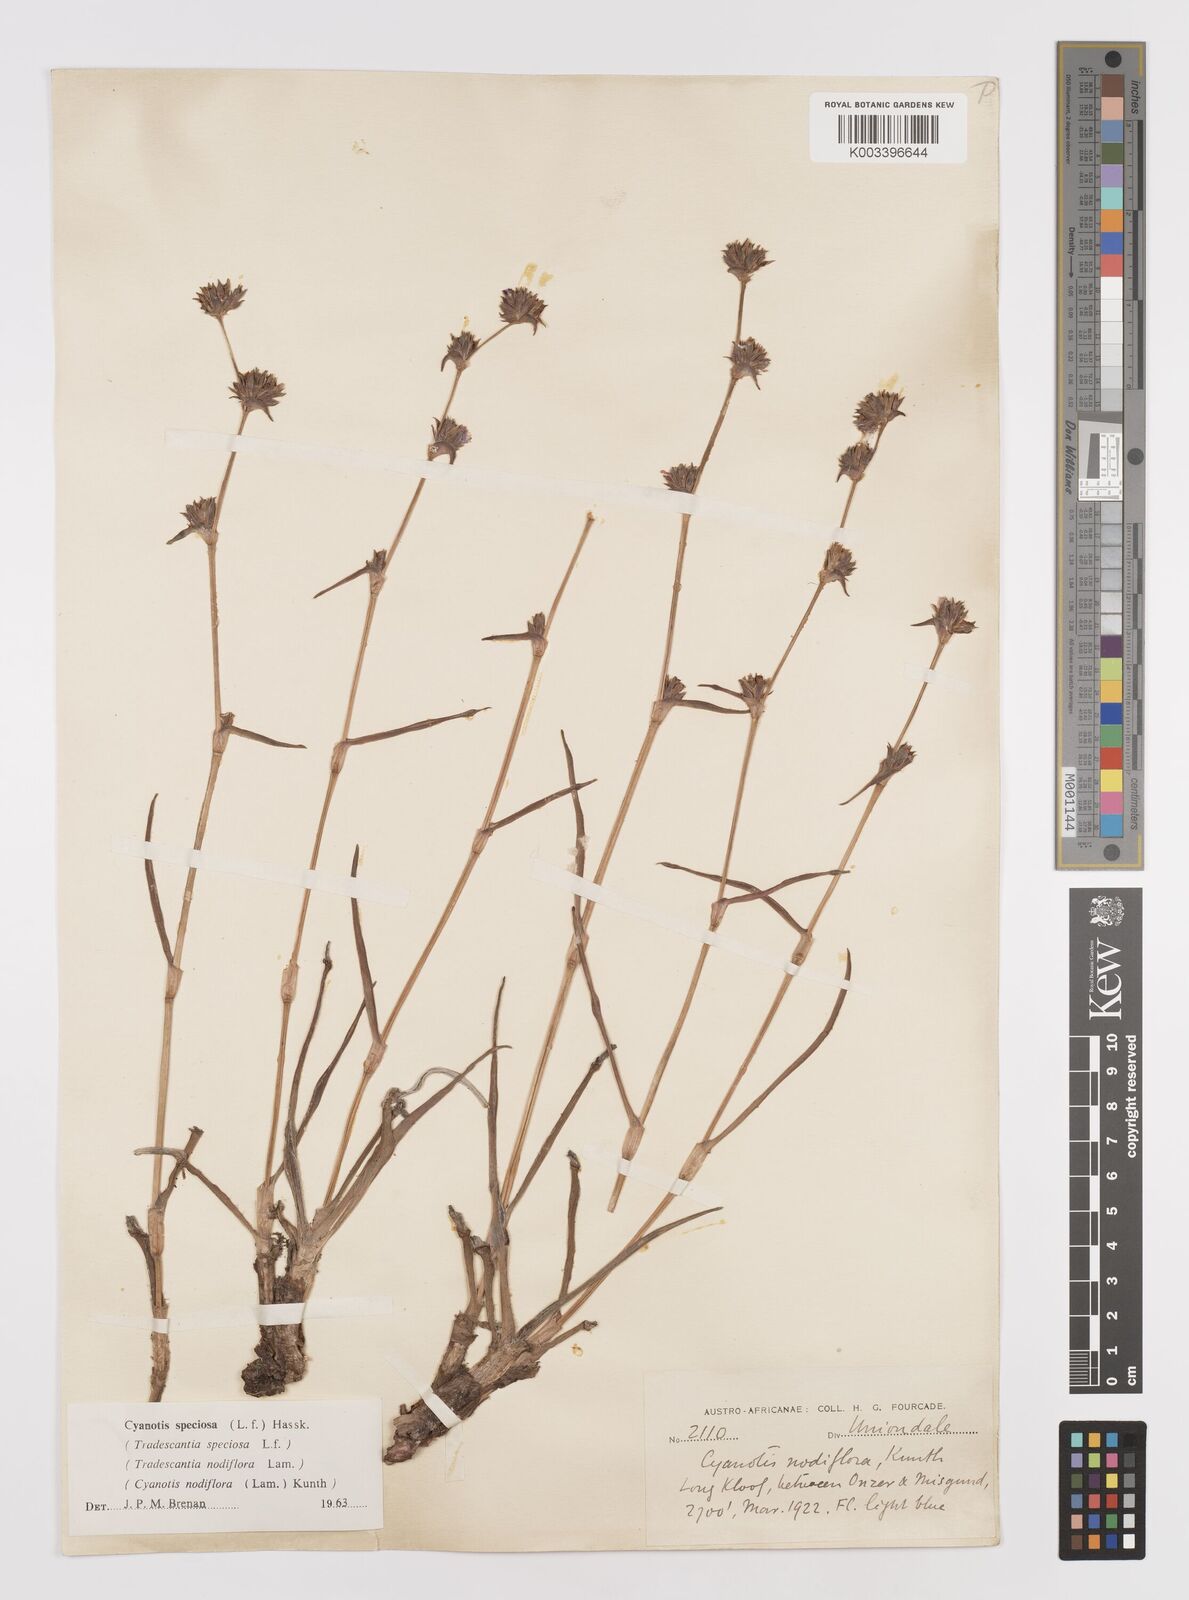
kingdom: Plantae
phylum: Tracheophyta
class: Liliopsida
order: Commelinales
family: Commelinaceae
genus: Cyanotis
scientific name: Cyanotis speciosa
